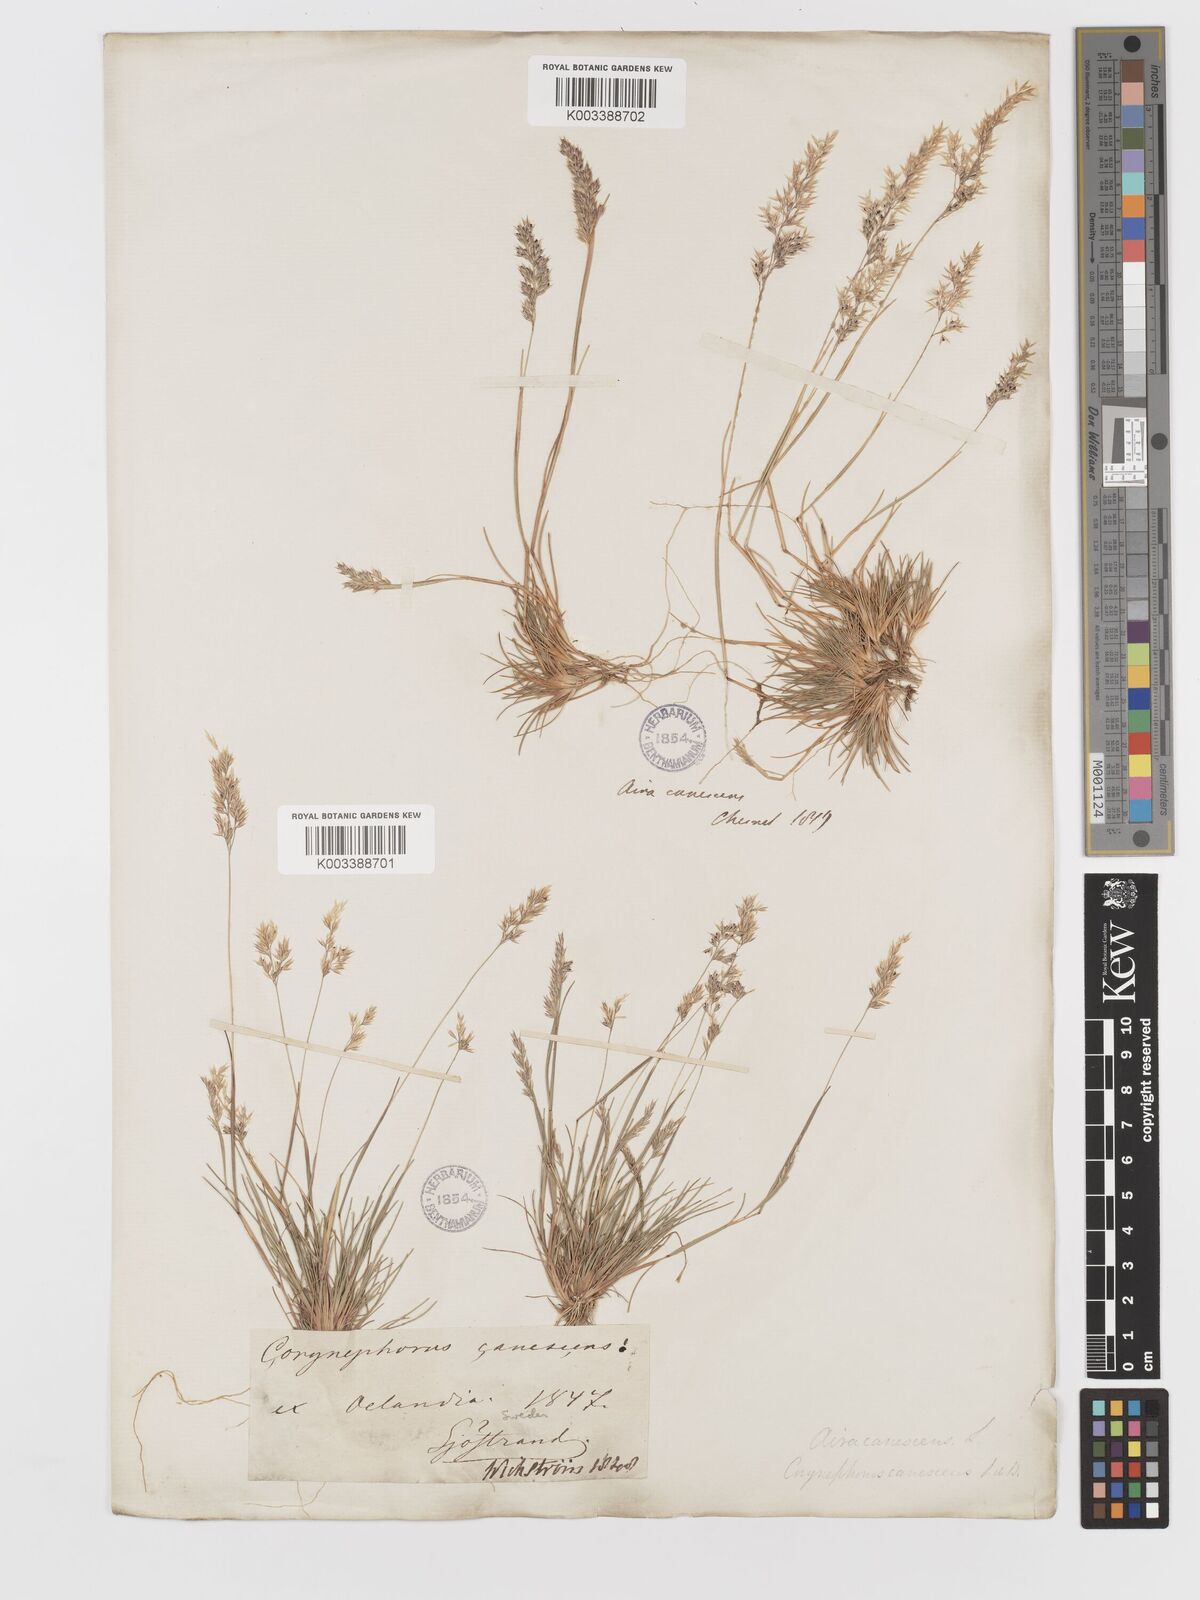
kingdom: Plantae
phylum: Tracheophyta
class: Liliopsida
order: Poales
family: Poaceae
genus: Corynephorus
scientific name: Corynephorus canescens
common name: Grey hair-grass
